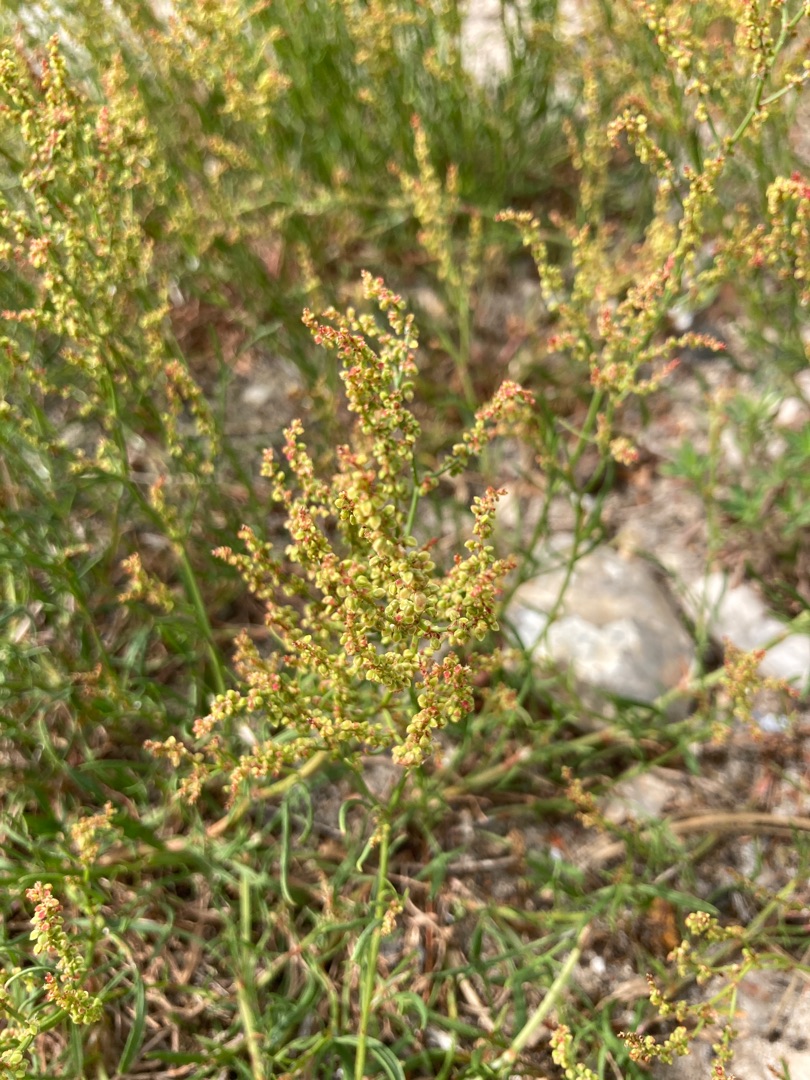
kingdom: Plantae
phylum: Tracheophyta
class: Magnoliopsida
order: Caryophyllales
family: Polygonaceae
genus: Rumex
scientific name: Rumex acetosella
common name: Rødknæ
